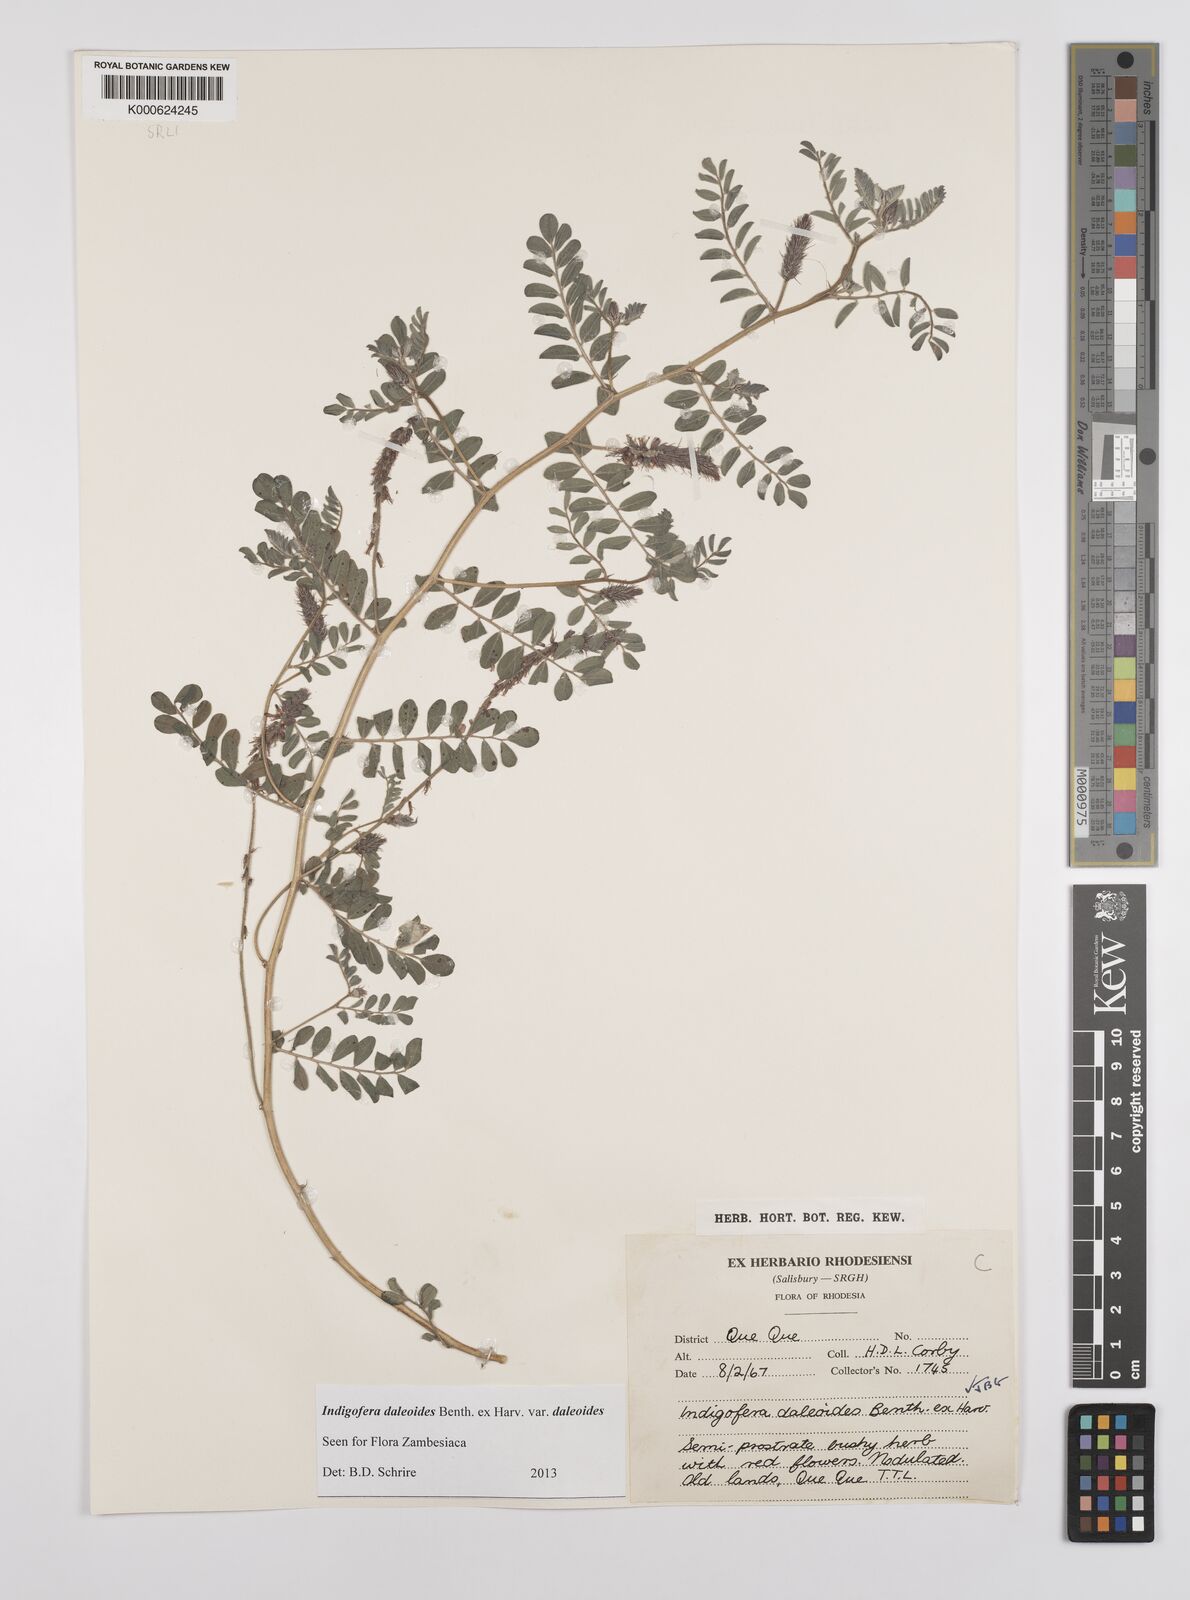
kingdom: Plantae
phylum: Tracheophyta
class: Magnoliopsida
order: Fabales
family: Fabaceae
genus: Indigofera
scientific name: Indigofera daleoides
